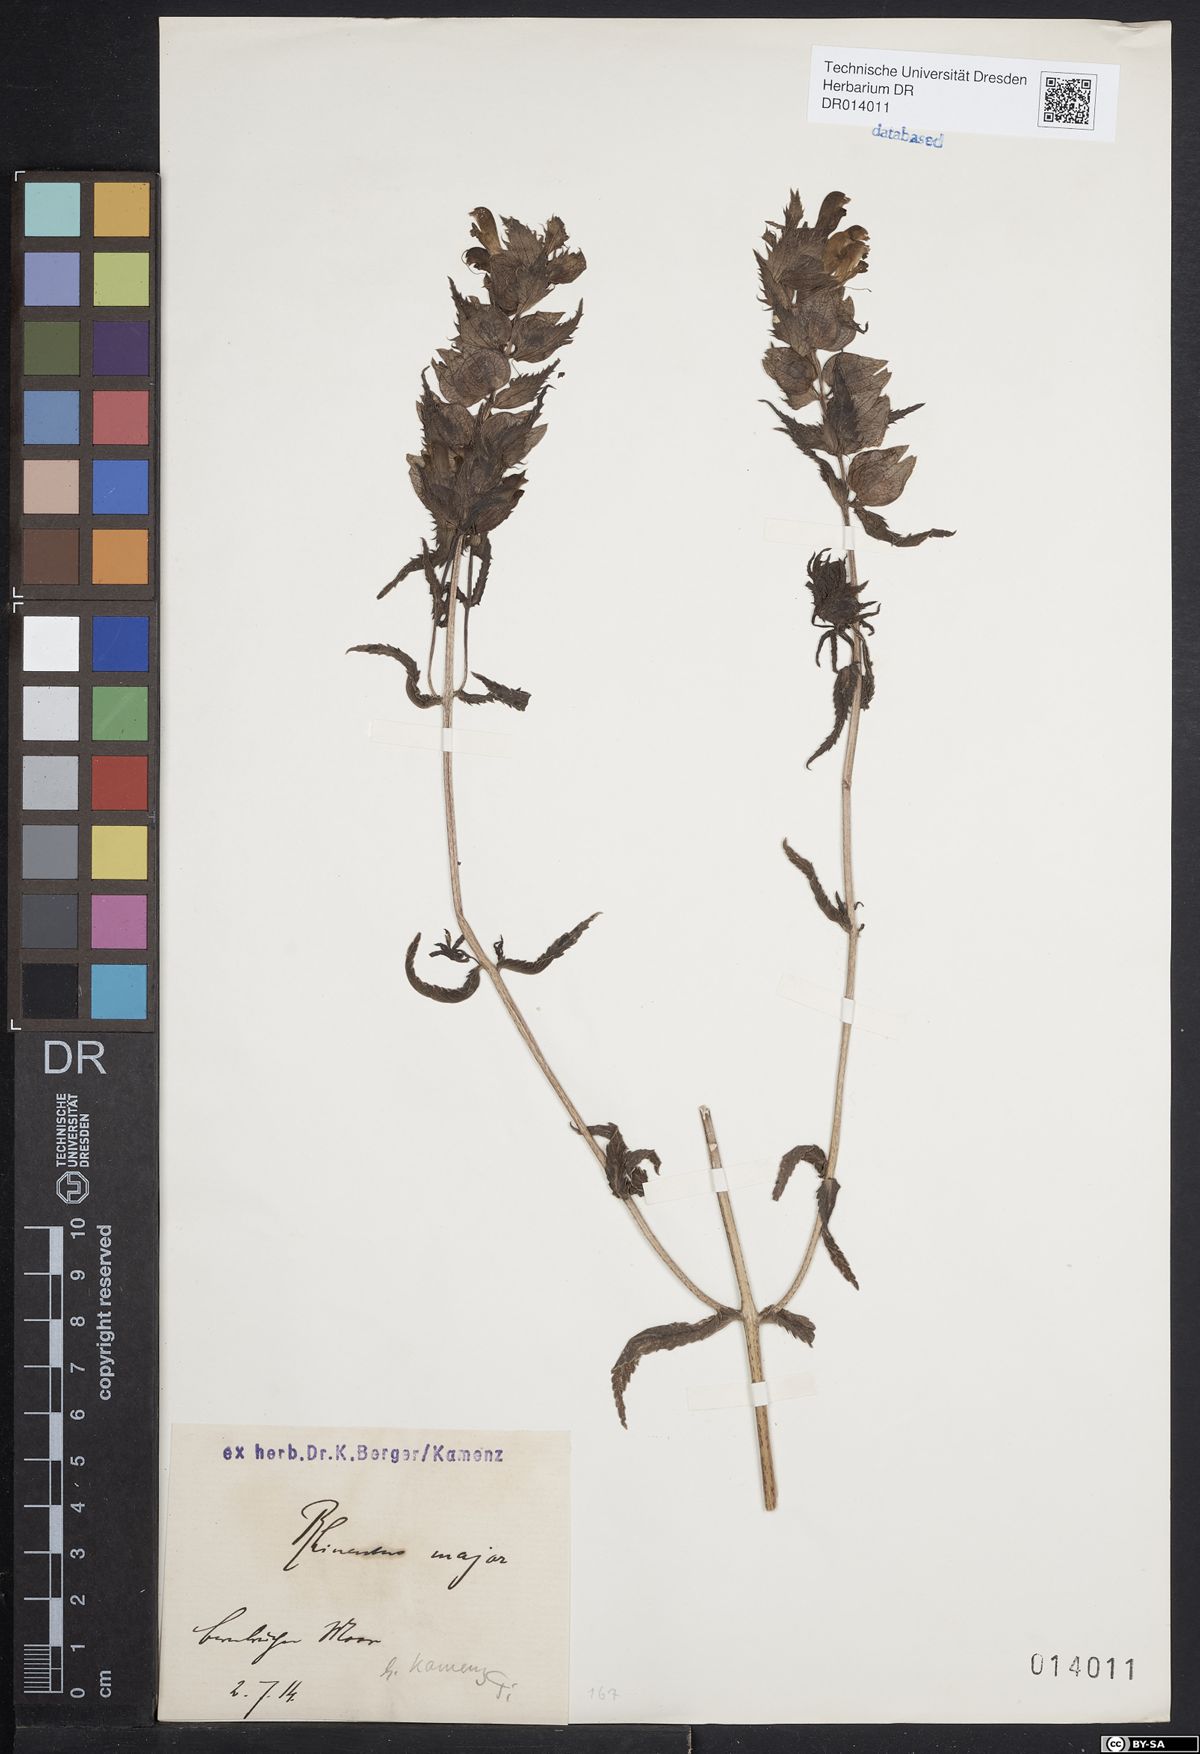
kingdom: Plantae
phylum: Tracheophyta
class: Magnoliopsida
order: Lamiales
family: Orobanchaceae
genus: Rhinanthus
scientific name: Rhinanthus serotinus
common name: Late-flowering yellow rattle
